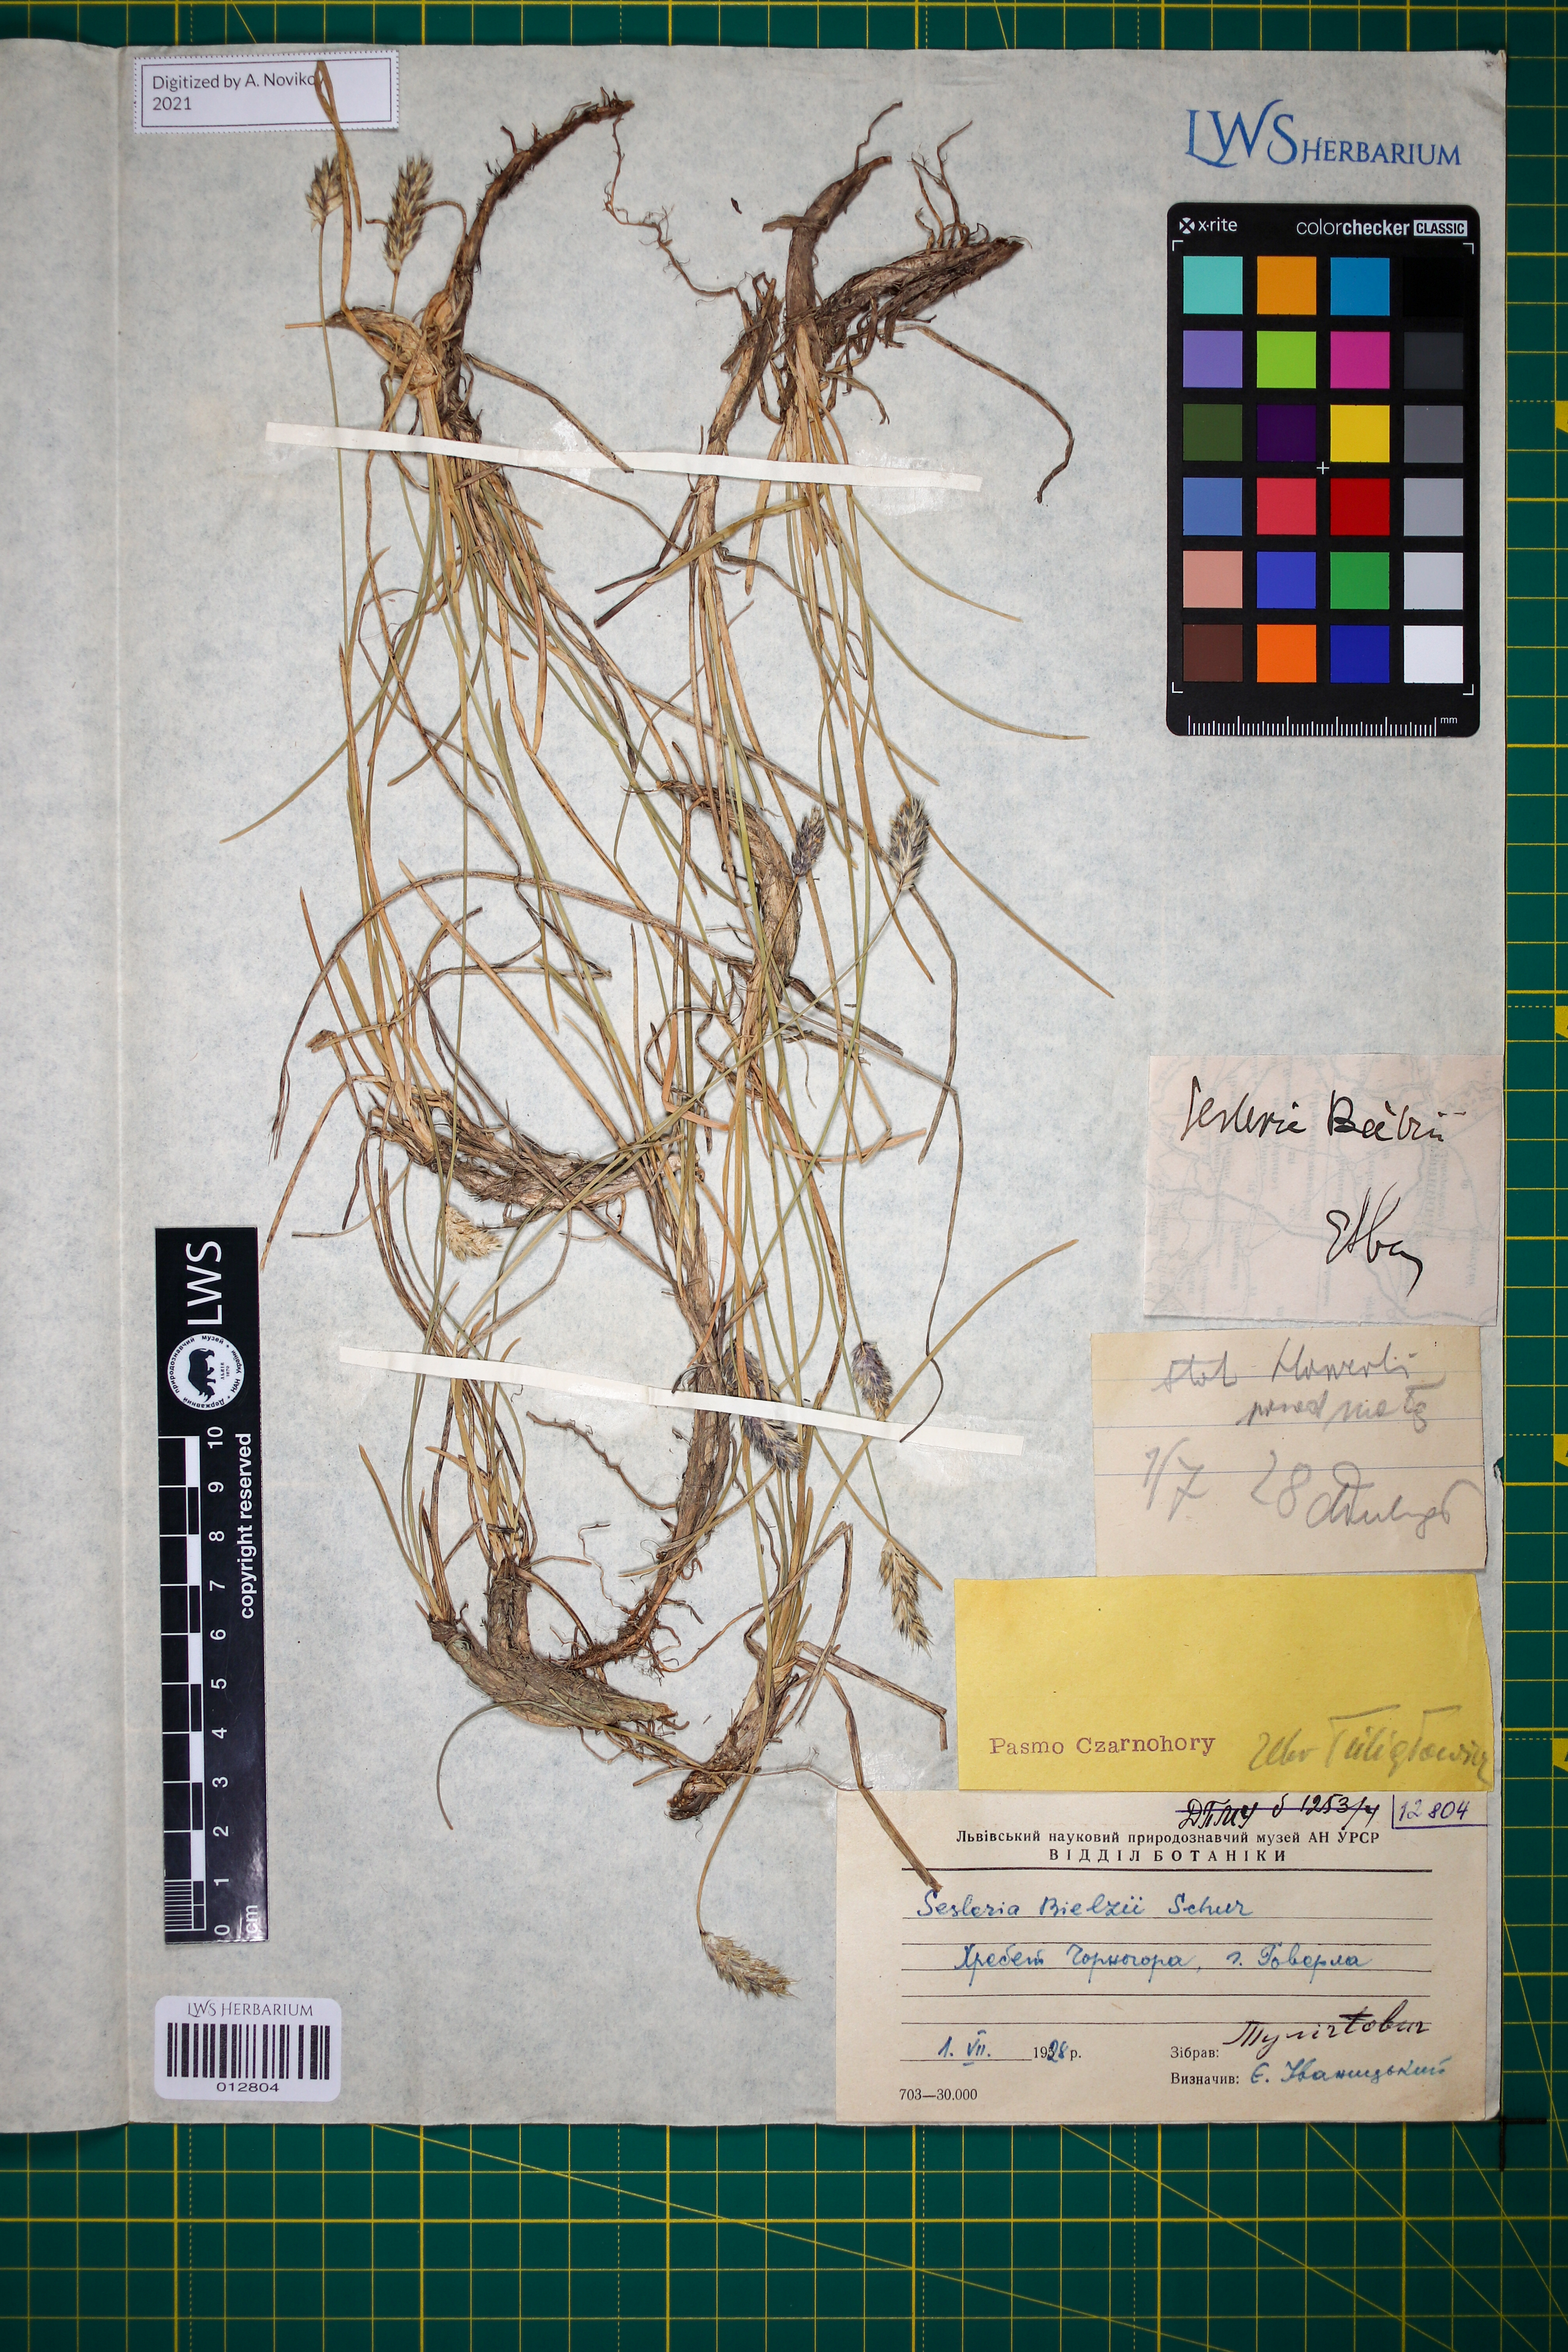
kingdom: Plantae
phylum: Tracheophyta
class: Liliopsida
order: Poales
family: Poaceae
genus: Sesleria
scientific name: Sesleria bielzii
